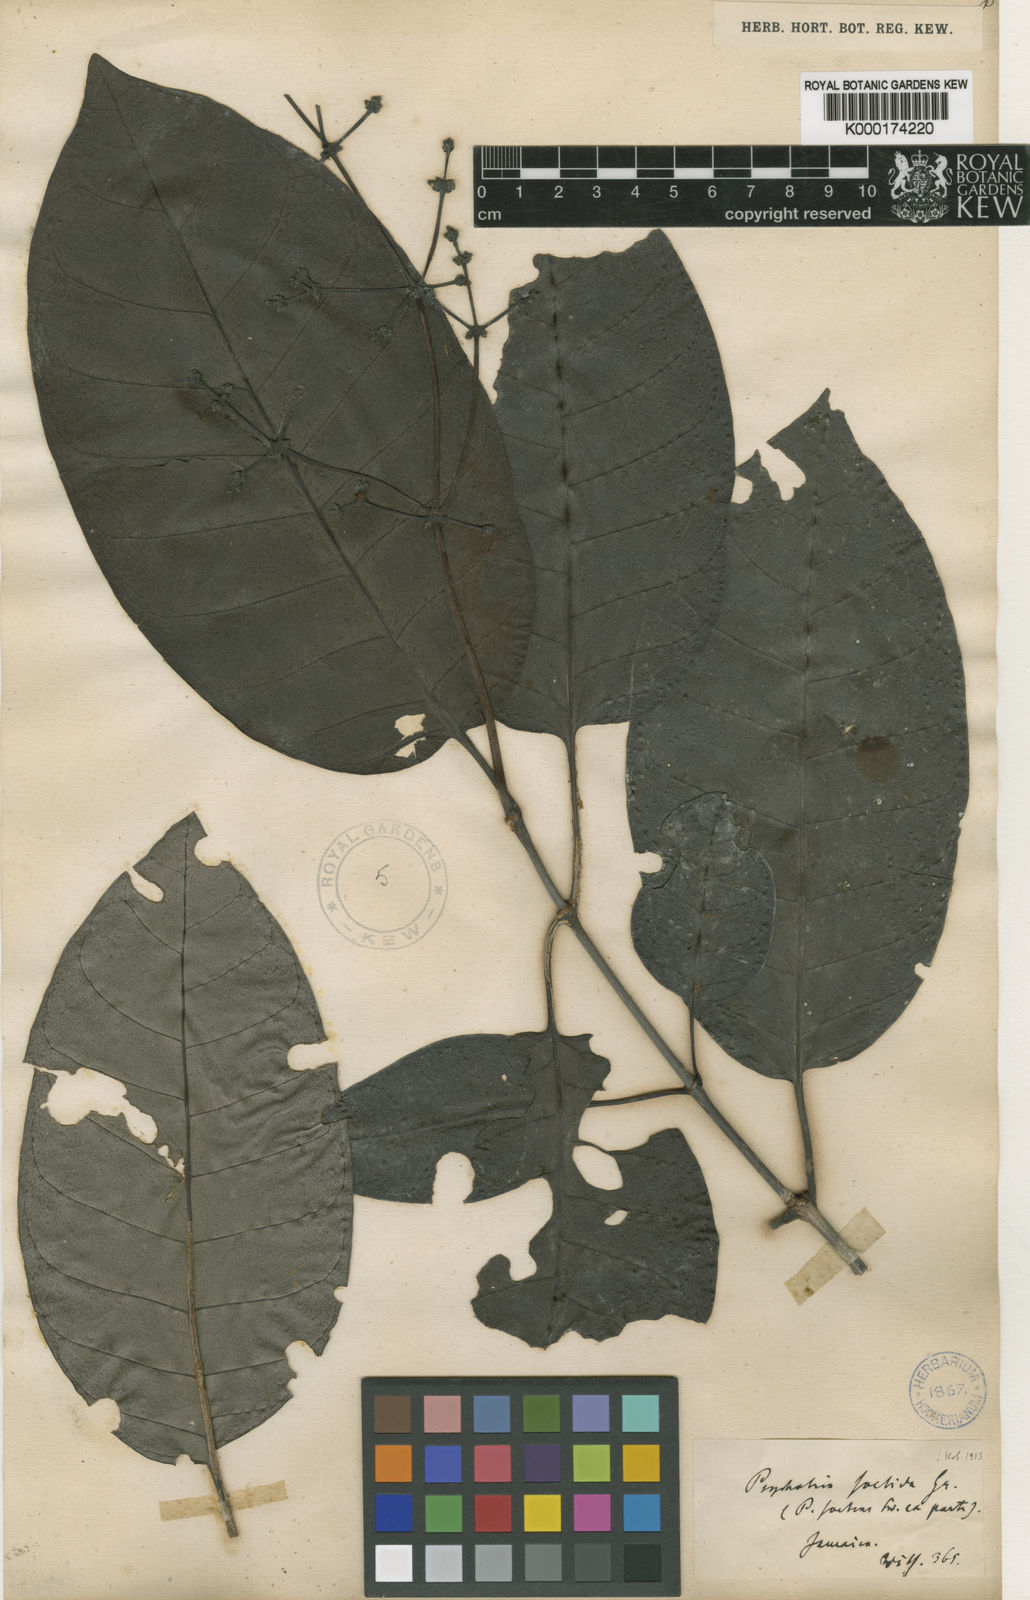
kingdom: Plantae
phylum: Tracheophyta
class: Magnoliopsida
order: Gentianales
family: Rubiaceae
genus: Psychotria
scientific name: Psychotria foetida
